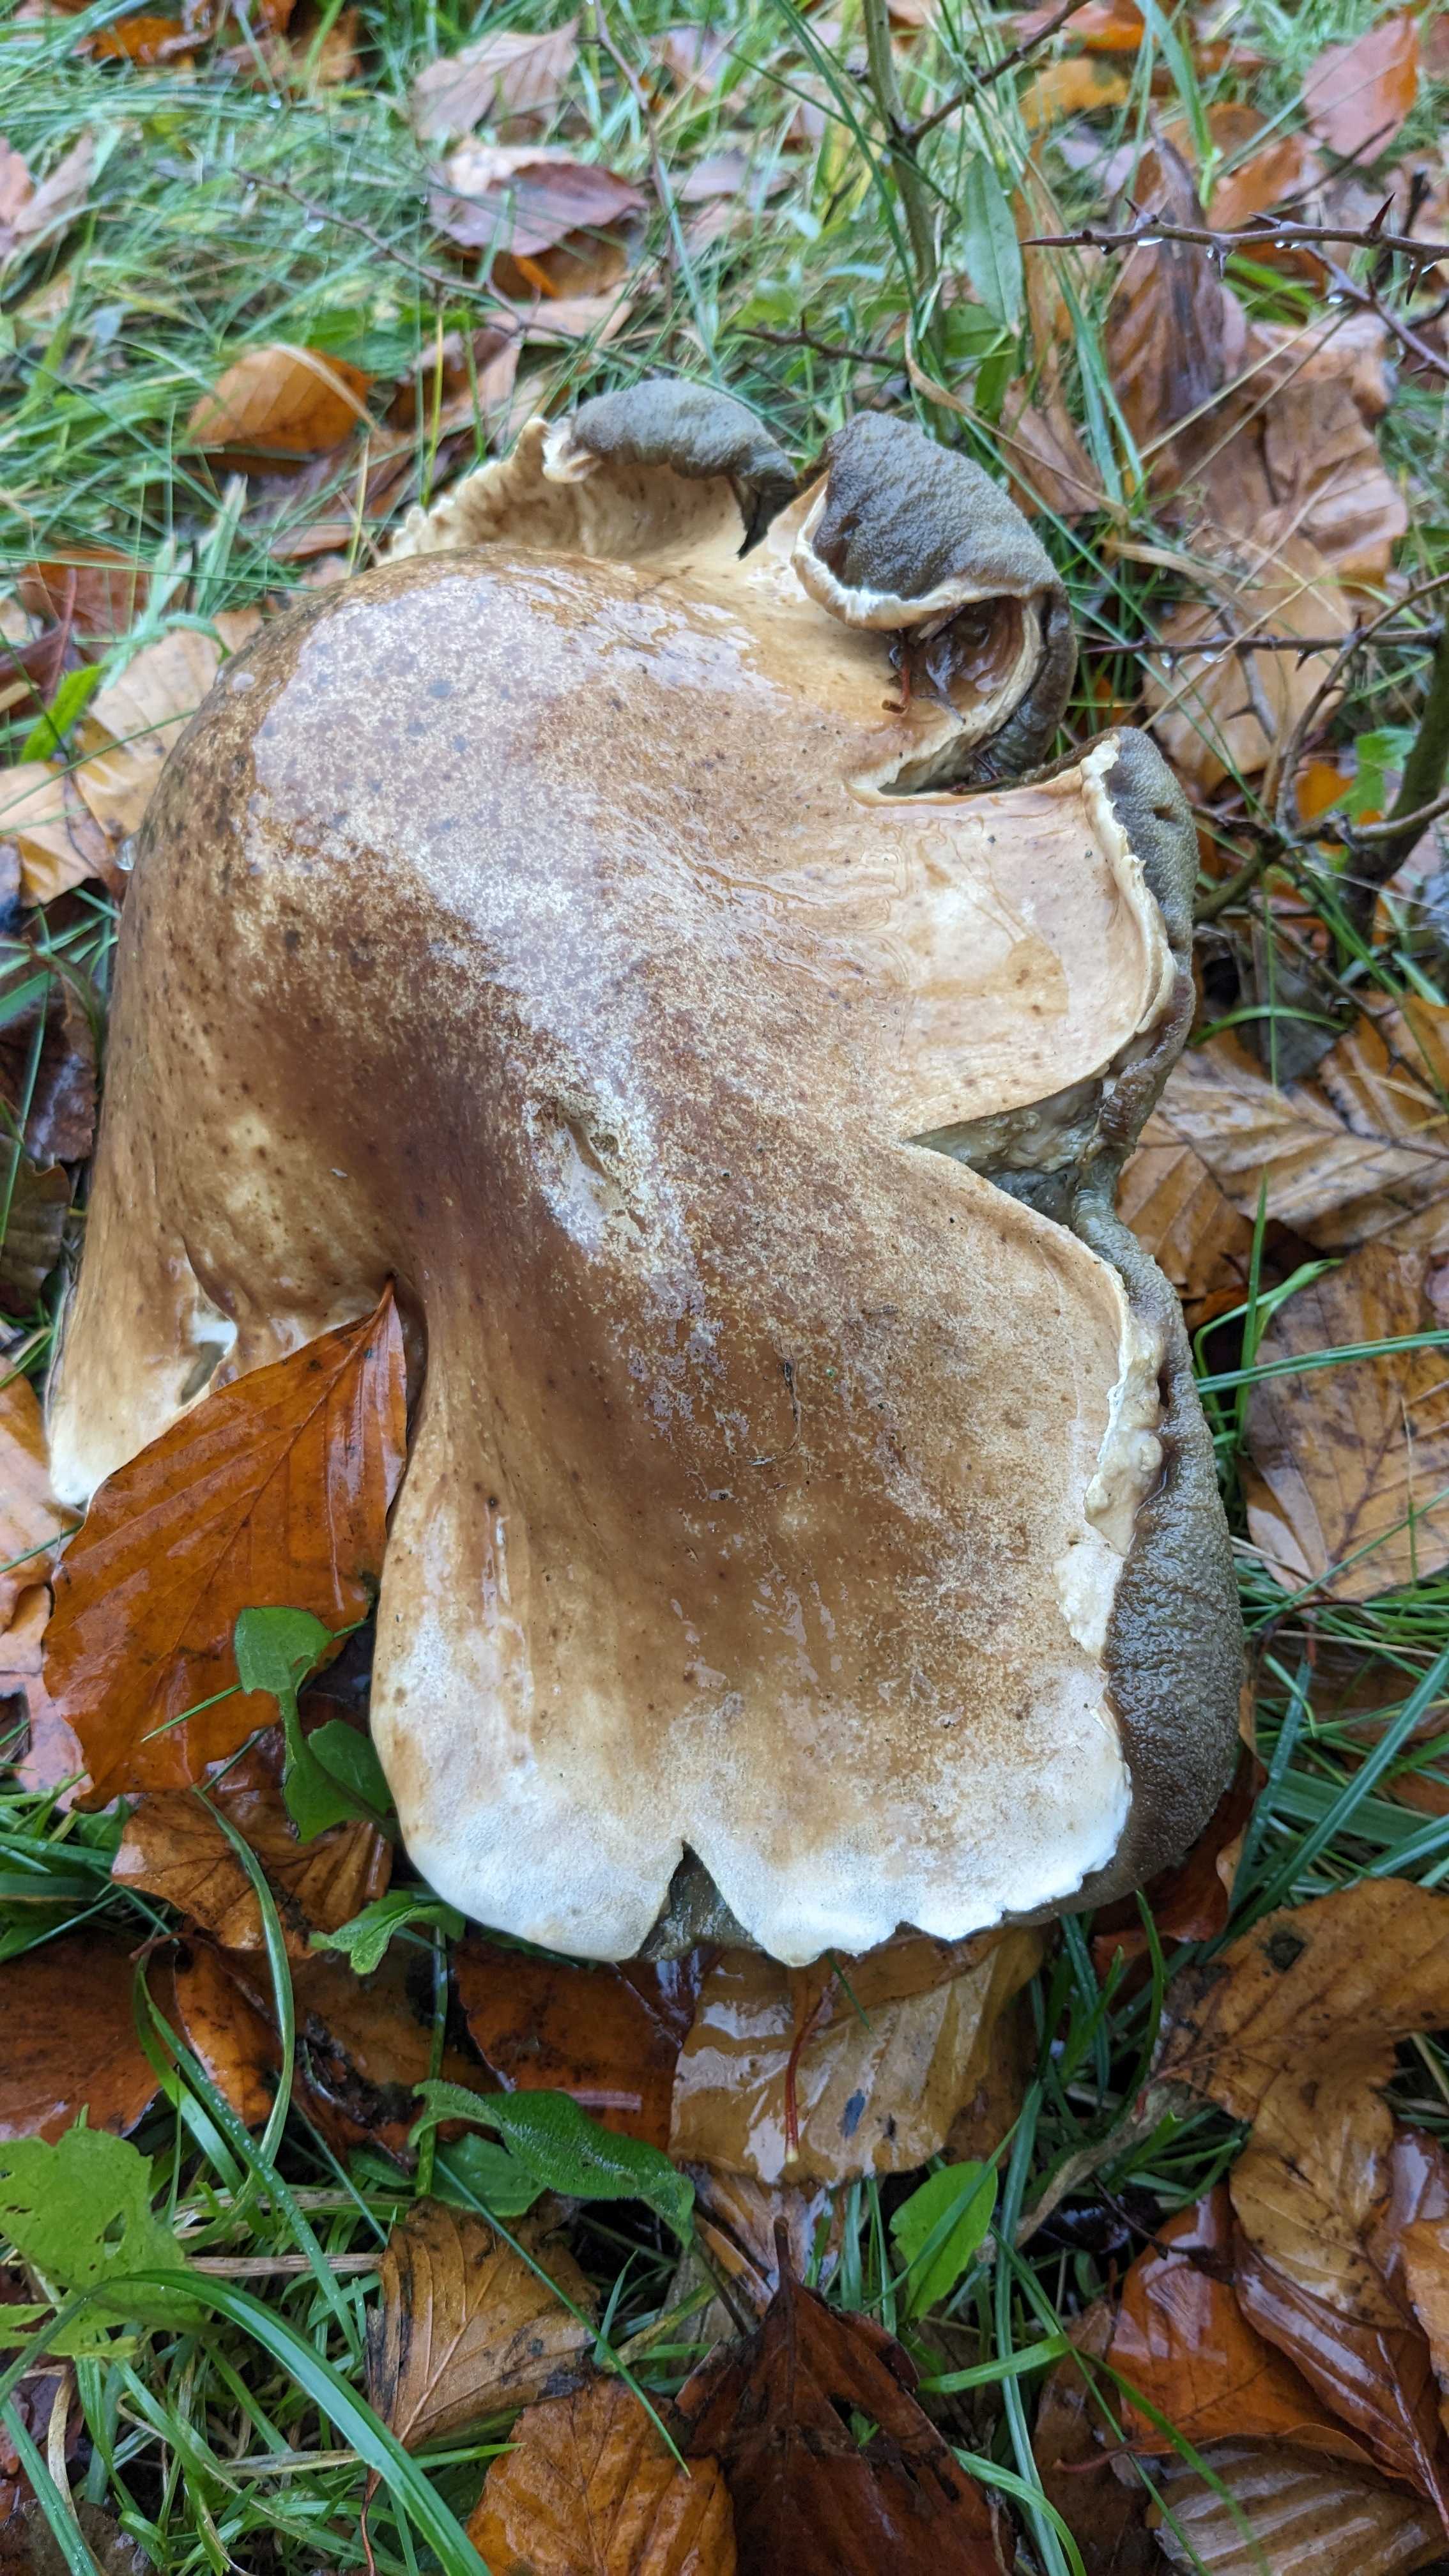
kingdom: Fungi
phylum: Basidiomycota
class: Agaricomycetes
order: Boletales
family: Boletaceae
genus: Boletus
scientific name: Boletus edulis
